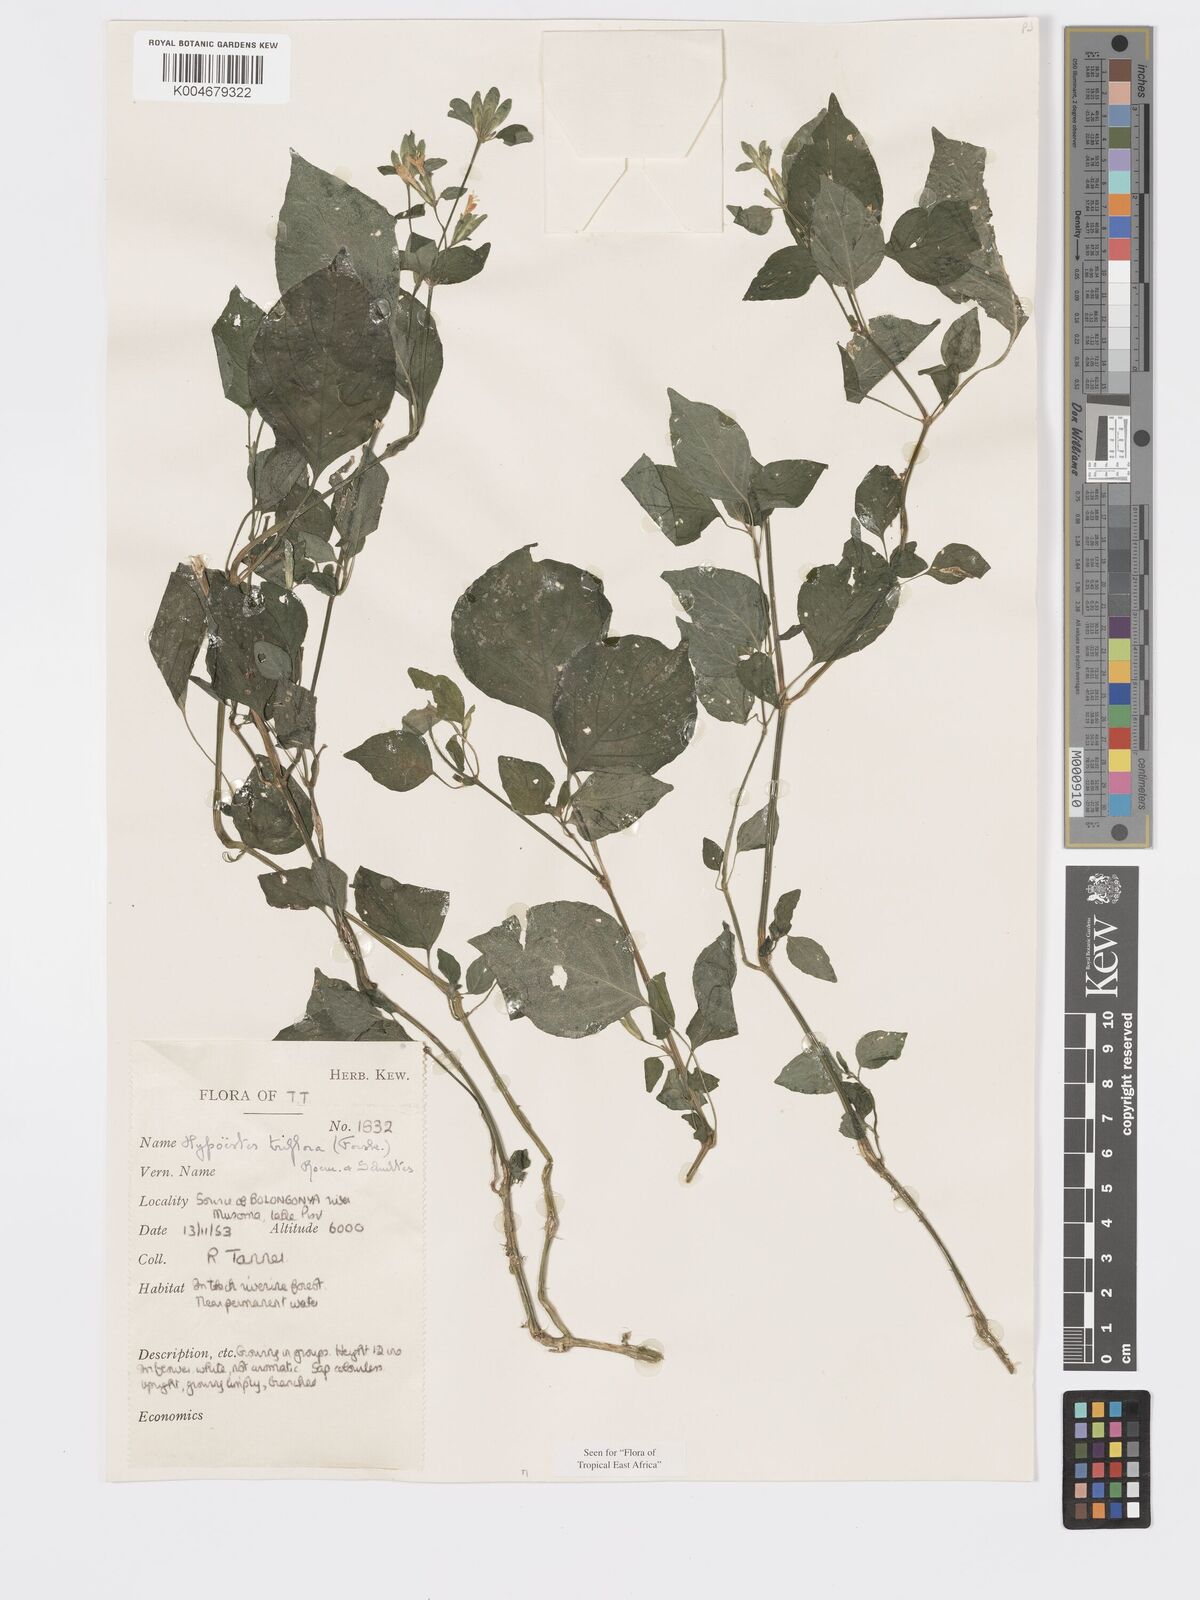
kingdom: Plantae
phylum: Tracheophyta
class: Magnoliopsida
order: Lamiales
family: Acanthaceae
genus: Hypoestes
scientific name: Hypoestes triflora
